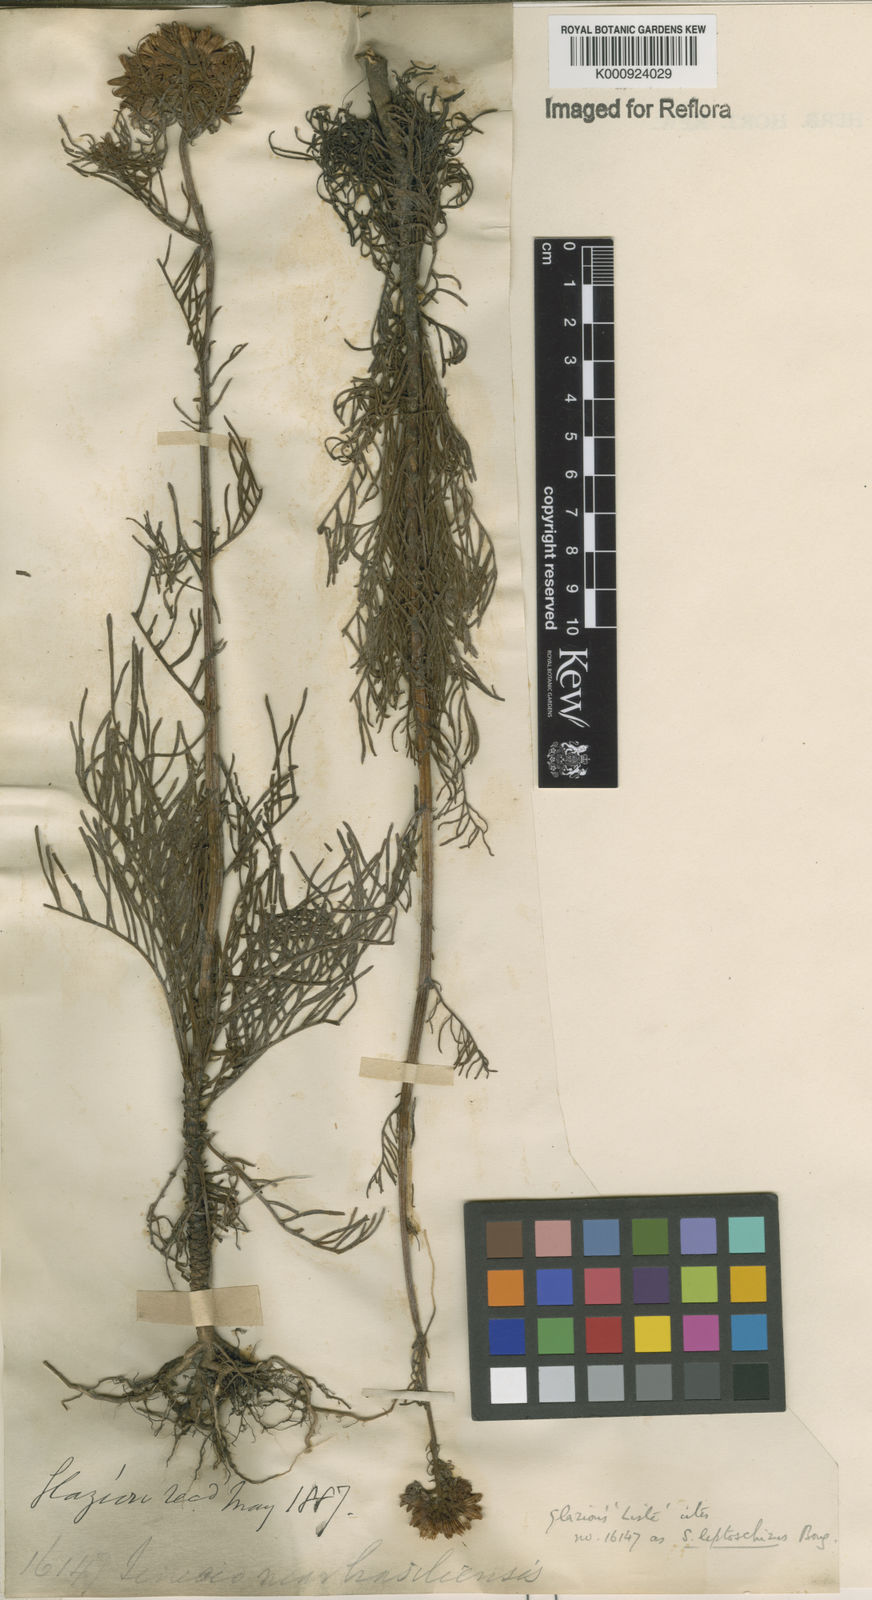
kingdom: Plantae
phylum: Tracheophyta
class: Magnoliopsida
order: Asterales
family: Asteraceae
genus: Senecio
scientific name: Senecio leptoschizus
